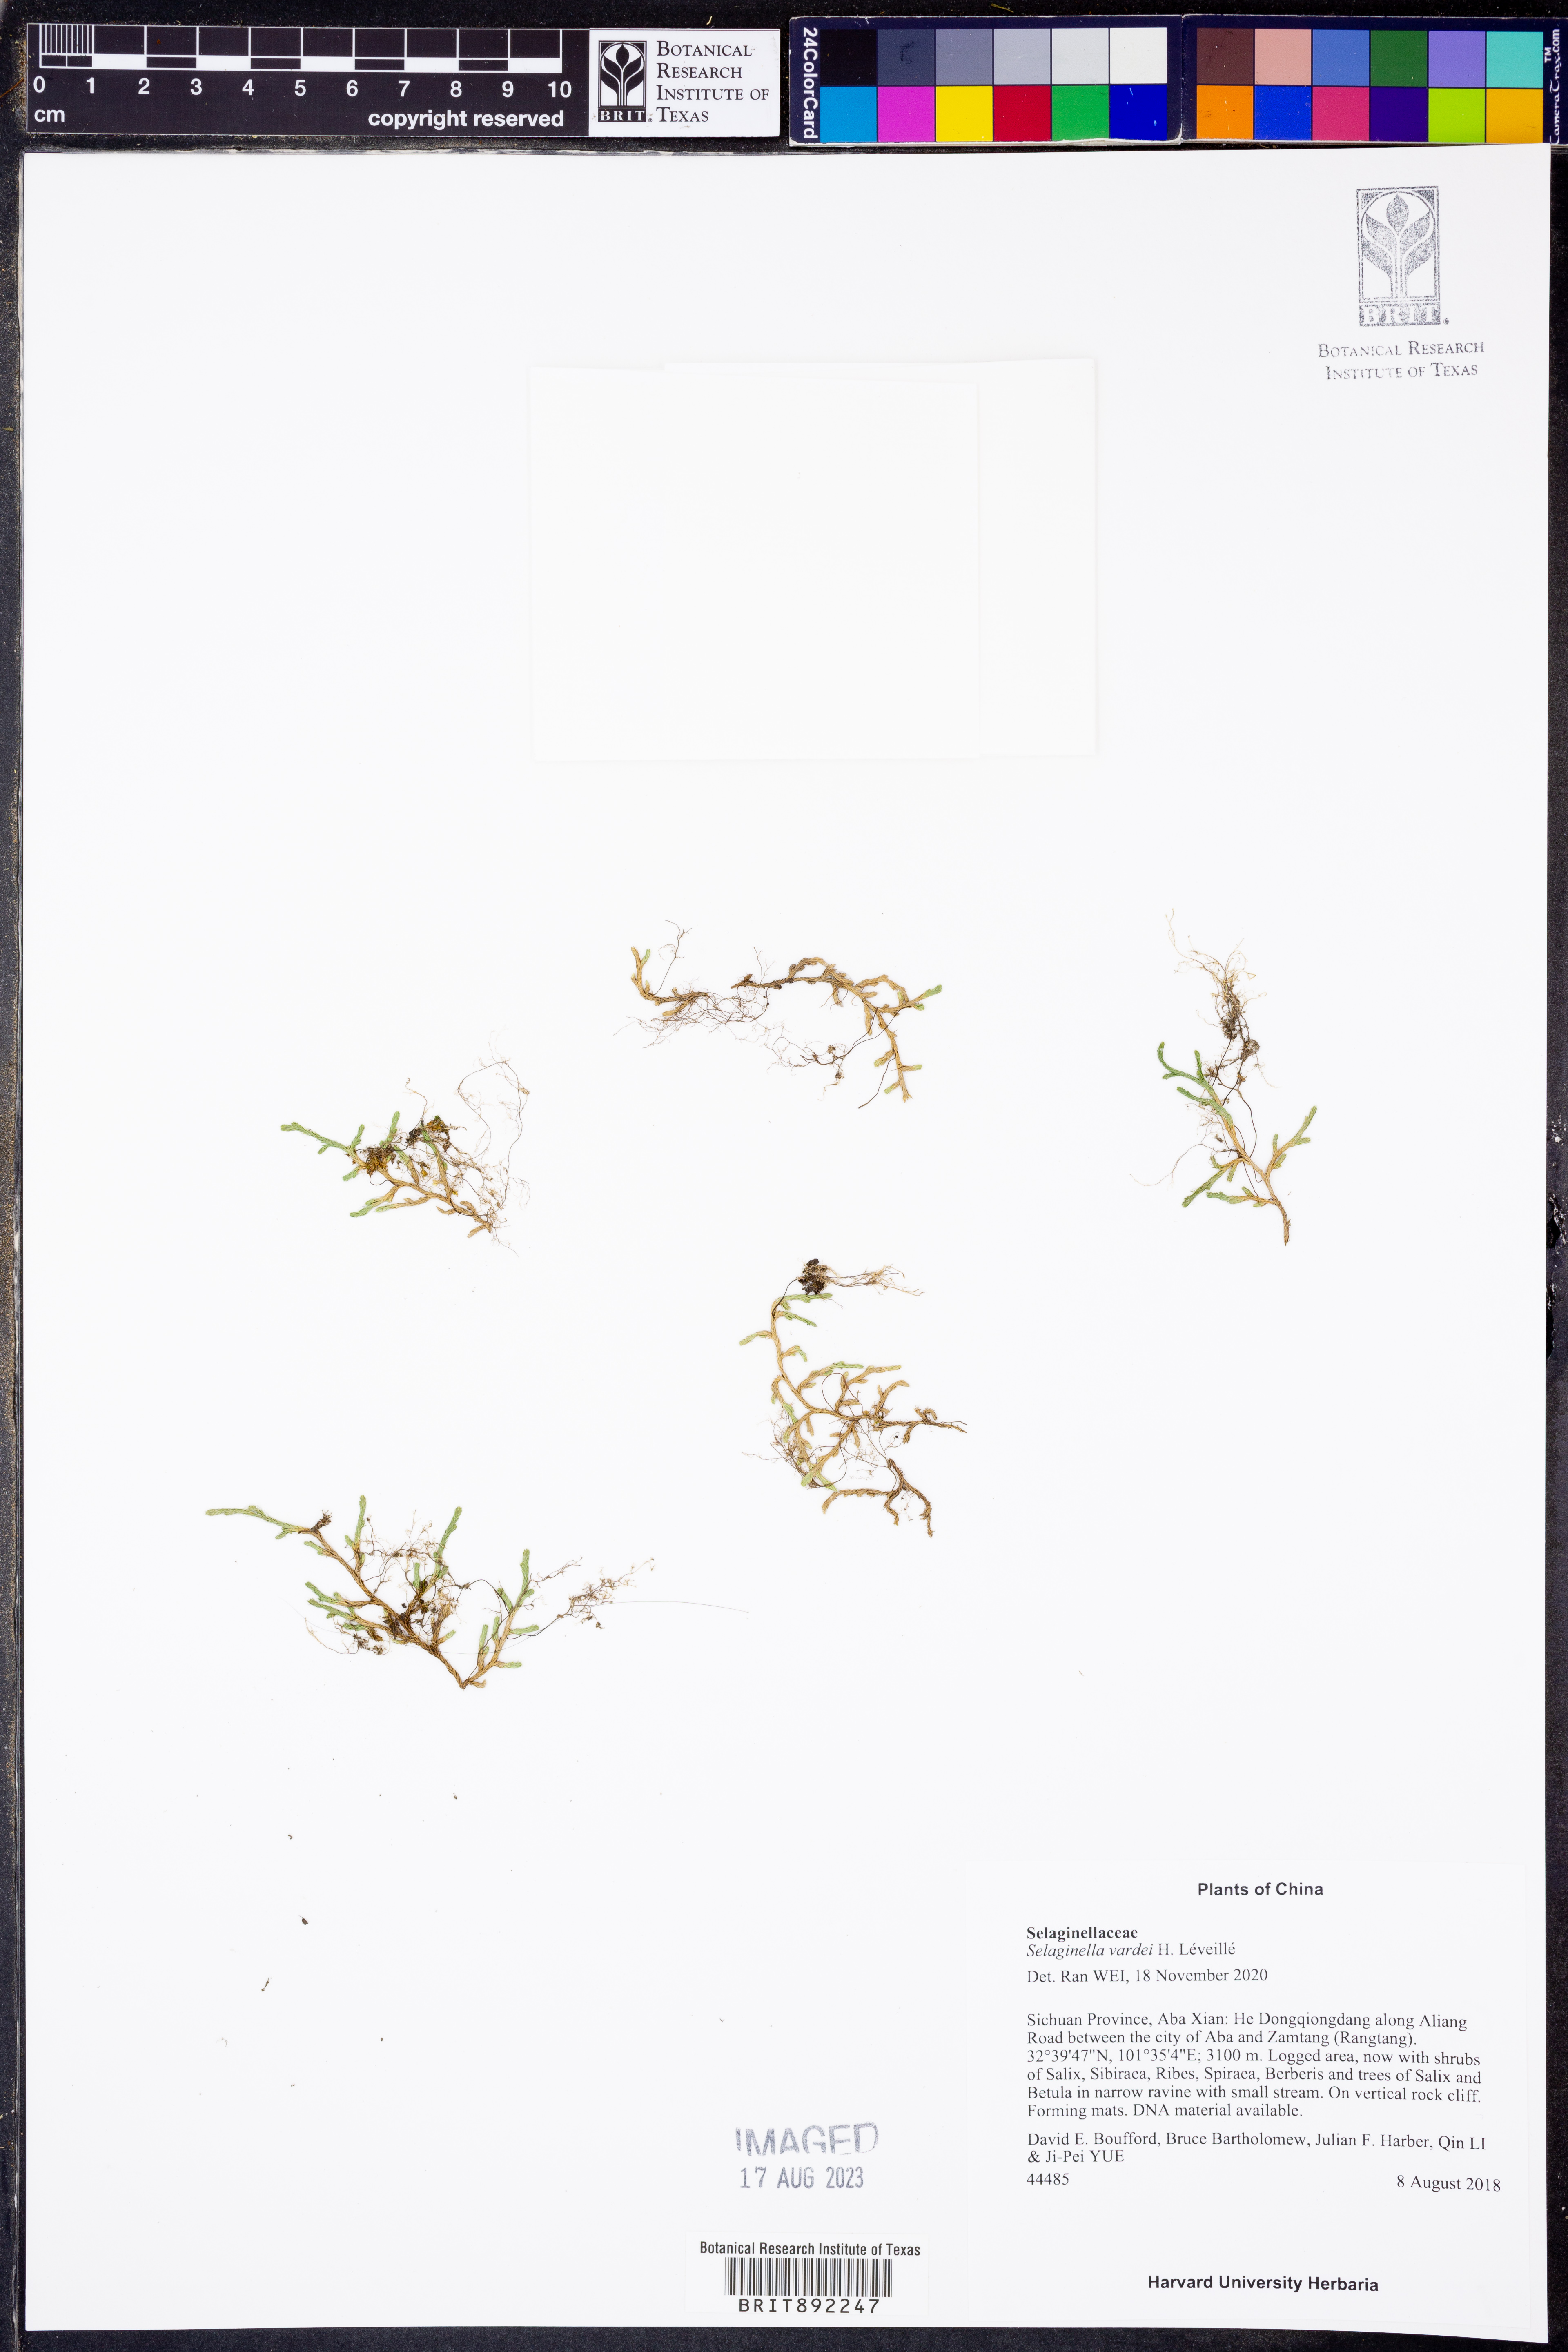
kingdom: Plantae
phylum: Tracheophyta
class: Lycopodiopsida
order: Selaginellales
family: Selaginellaceae
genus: Selaginella
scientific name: Selaginella vardei
